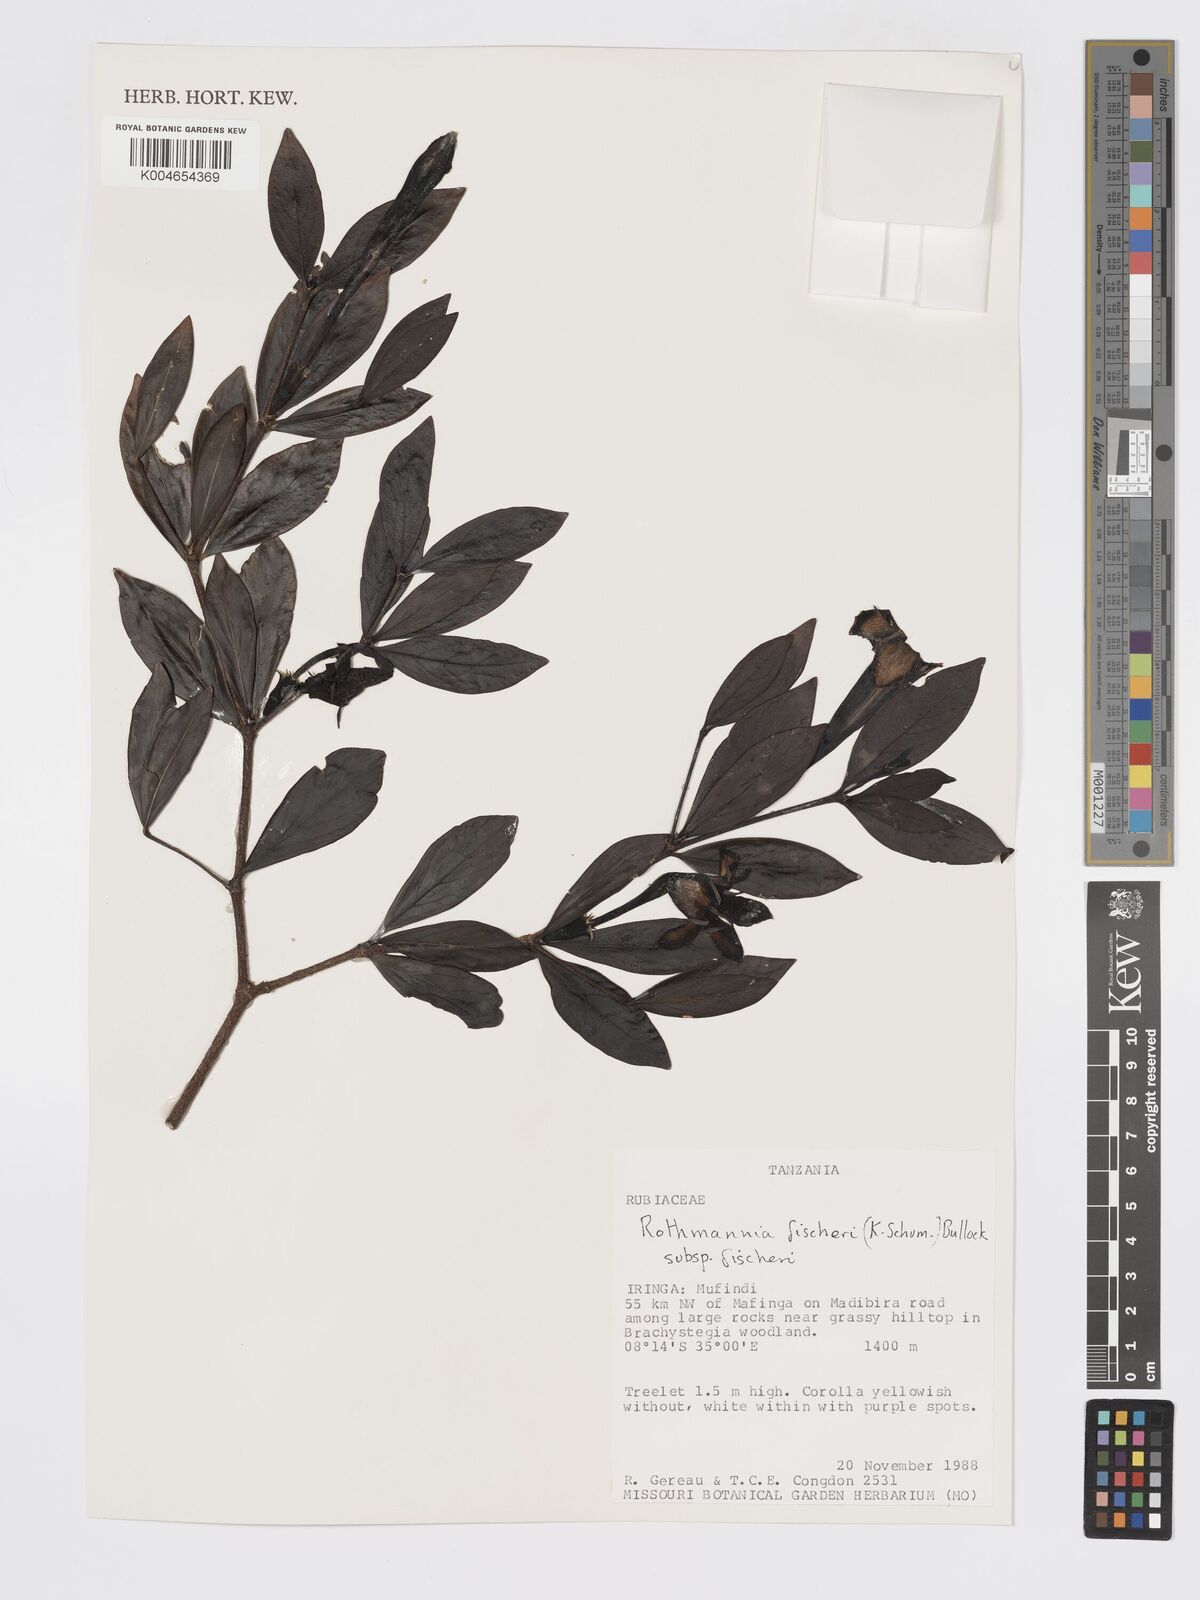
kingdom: Plantae
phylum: Tracheophyta
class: Magnoliopsida
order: Gentianales
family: Rubiaceae
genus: Rothmannia
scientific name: Rothmannia fischeri
